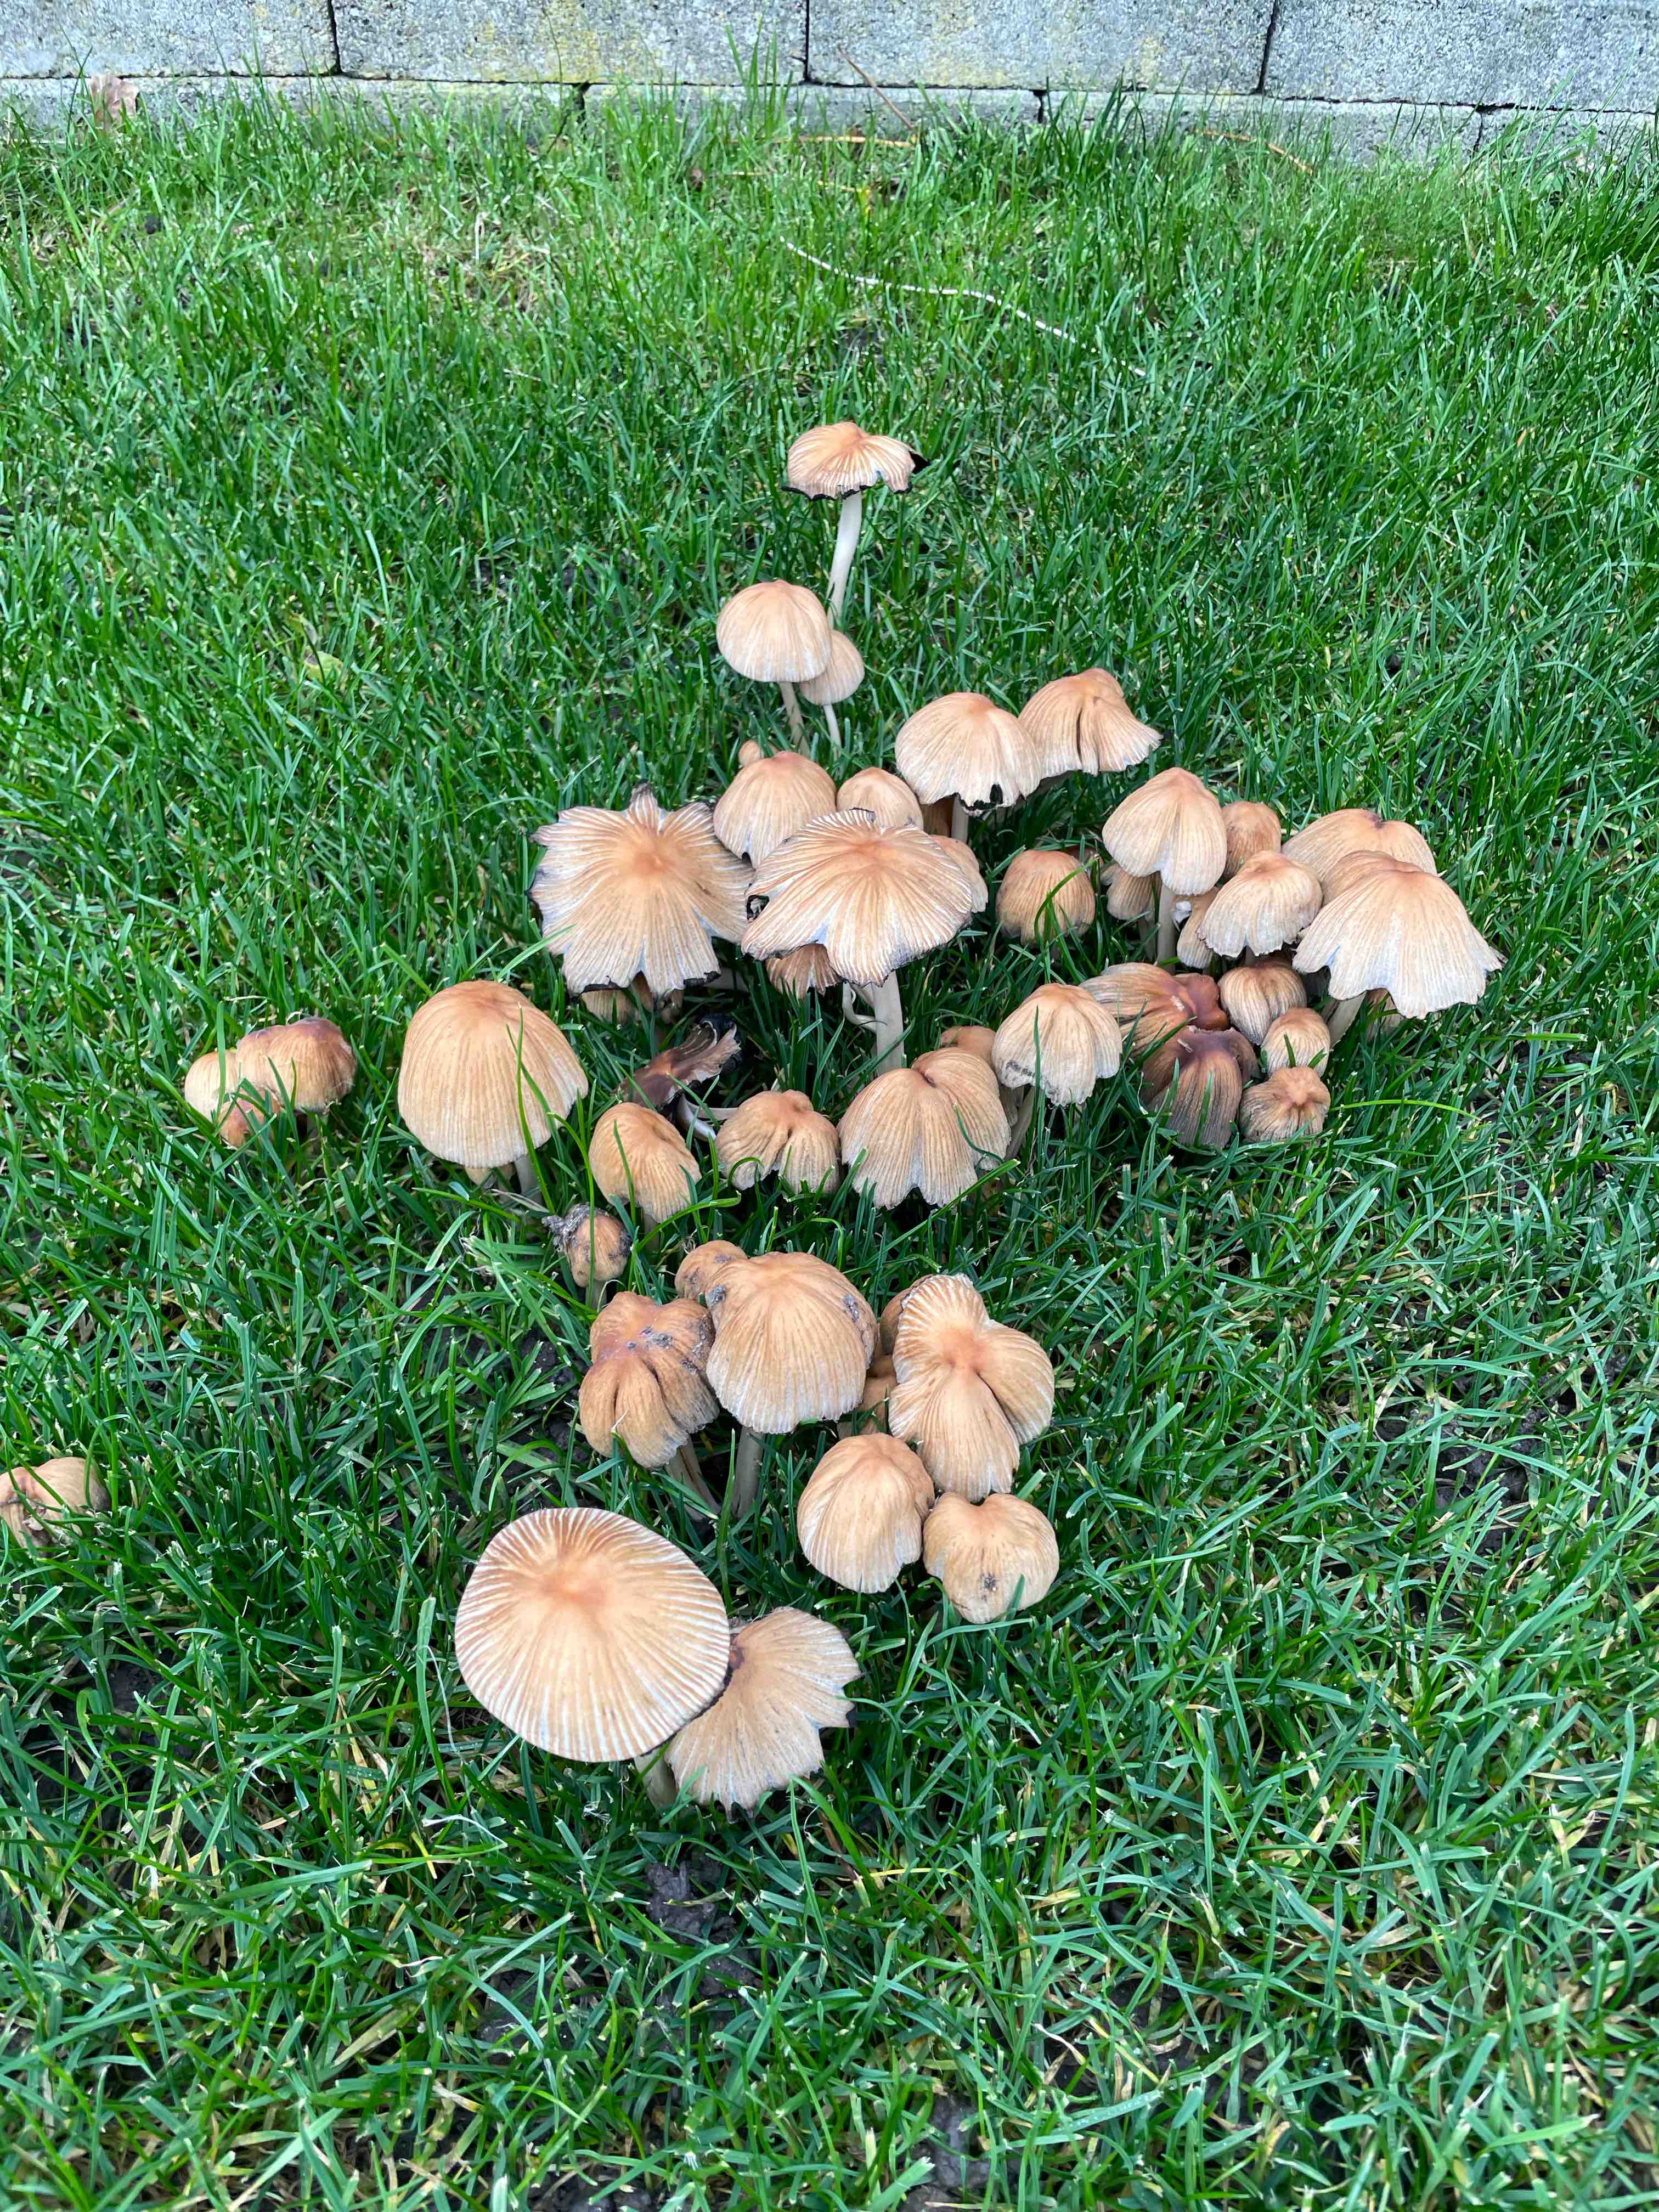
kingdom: Fungi
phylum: Basidiomycota
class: Agaricomycetes
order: Agaricales
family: Psathyrellaceae
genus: Coprinellus
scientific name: Coprinellus
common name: blækhat
